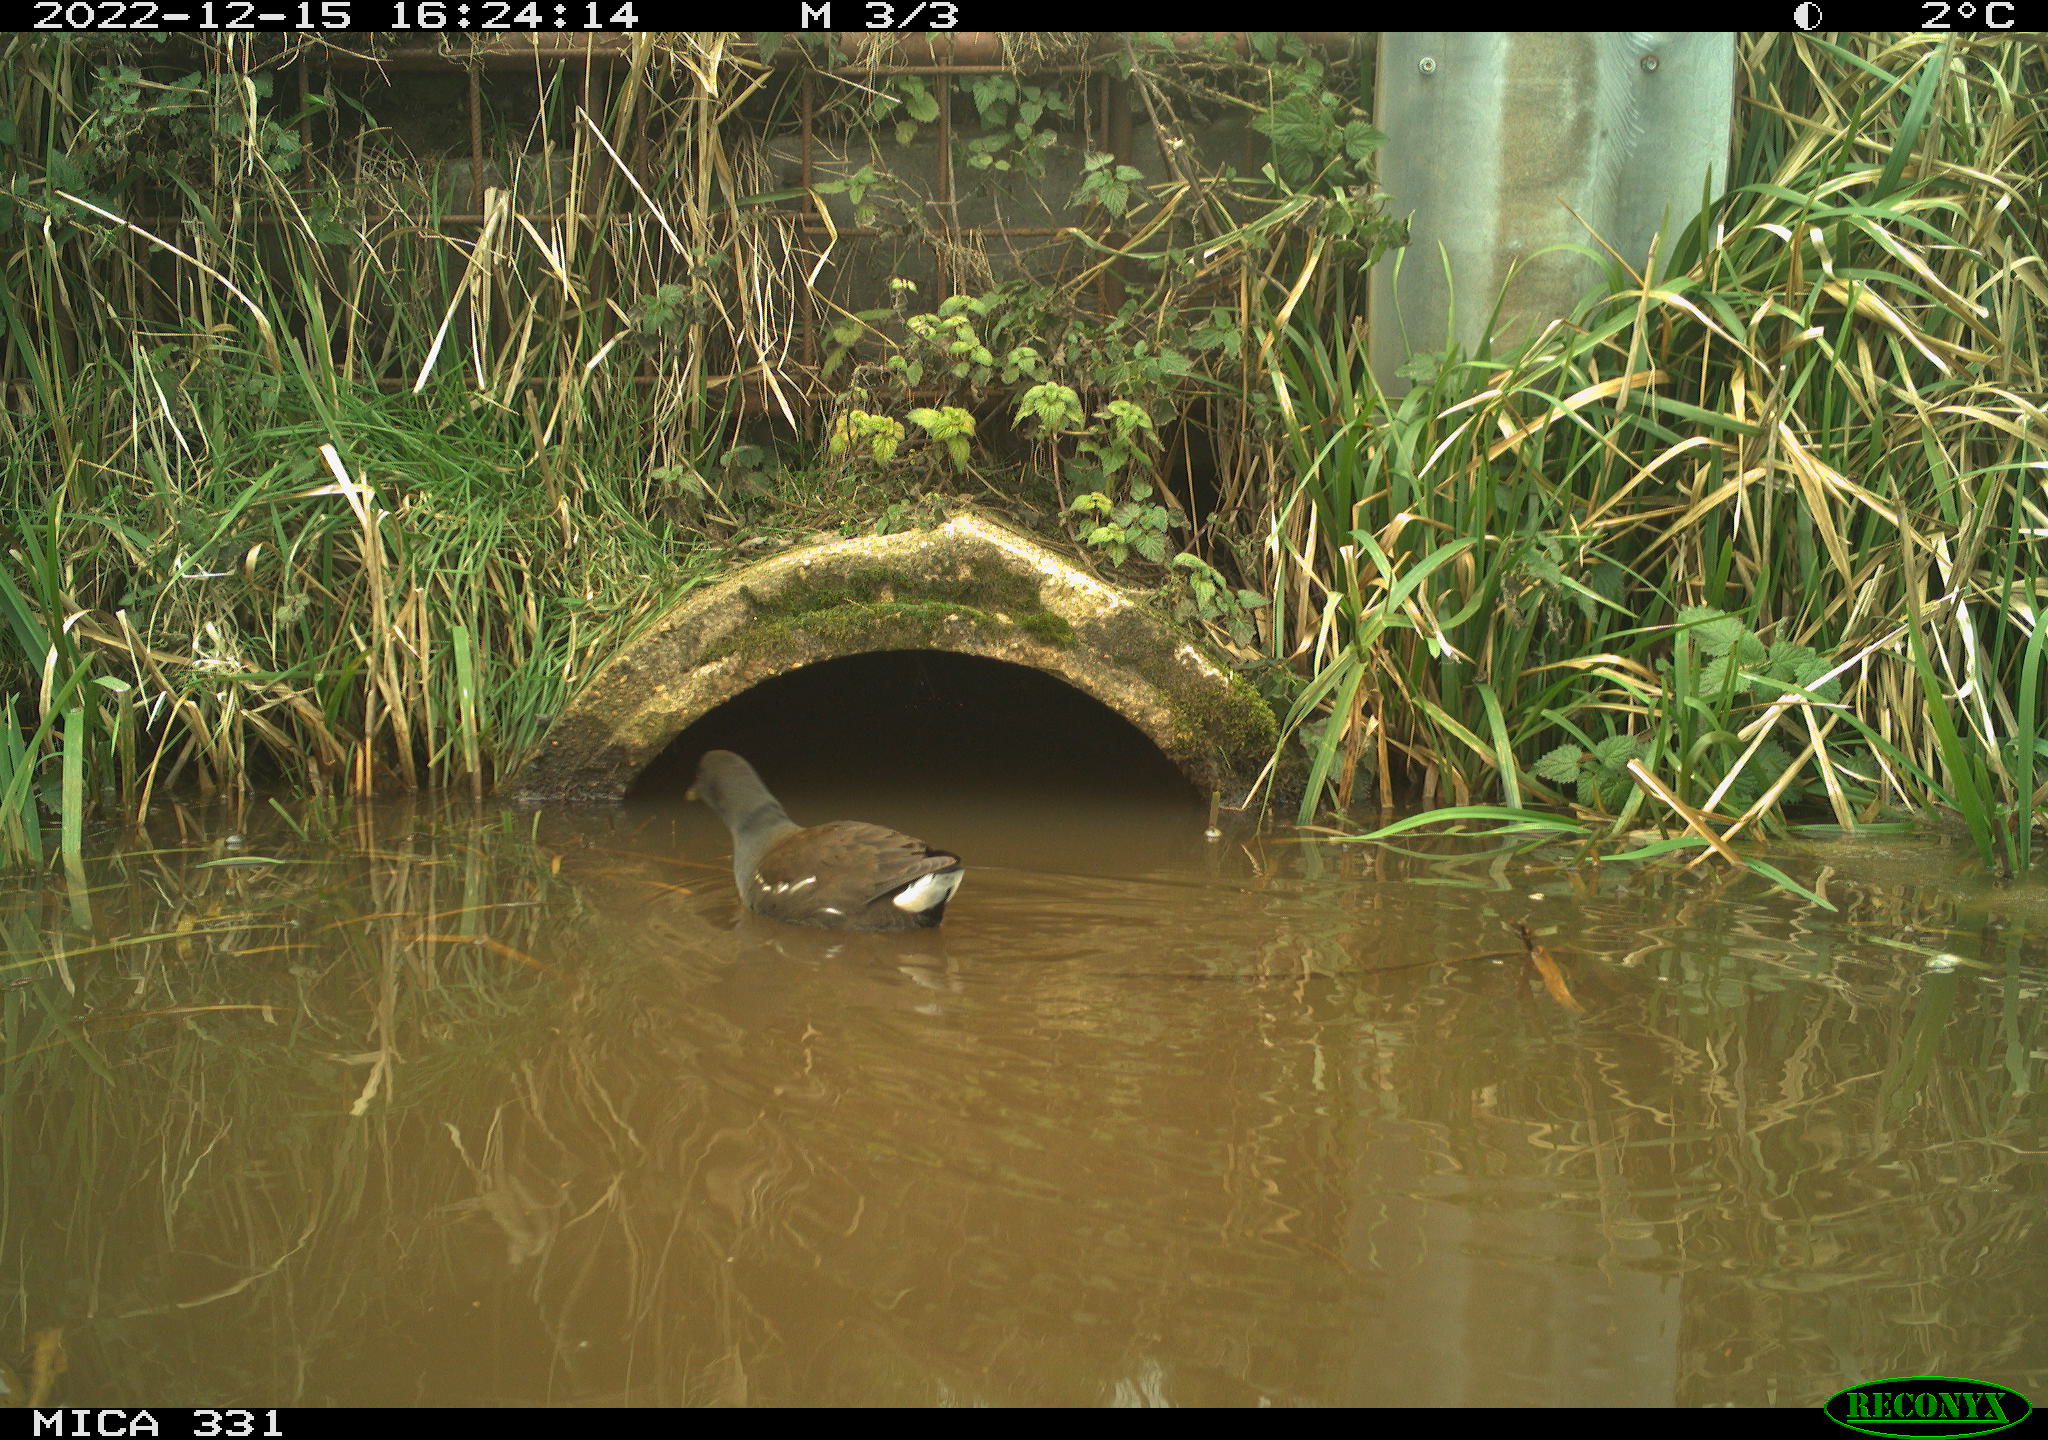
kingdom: Animalia
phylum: Chordata
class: Aves
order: Gruiformes
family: Rallidae
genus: Gallinula
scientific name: Gallinula chloropus
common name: Common moorhen
